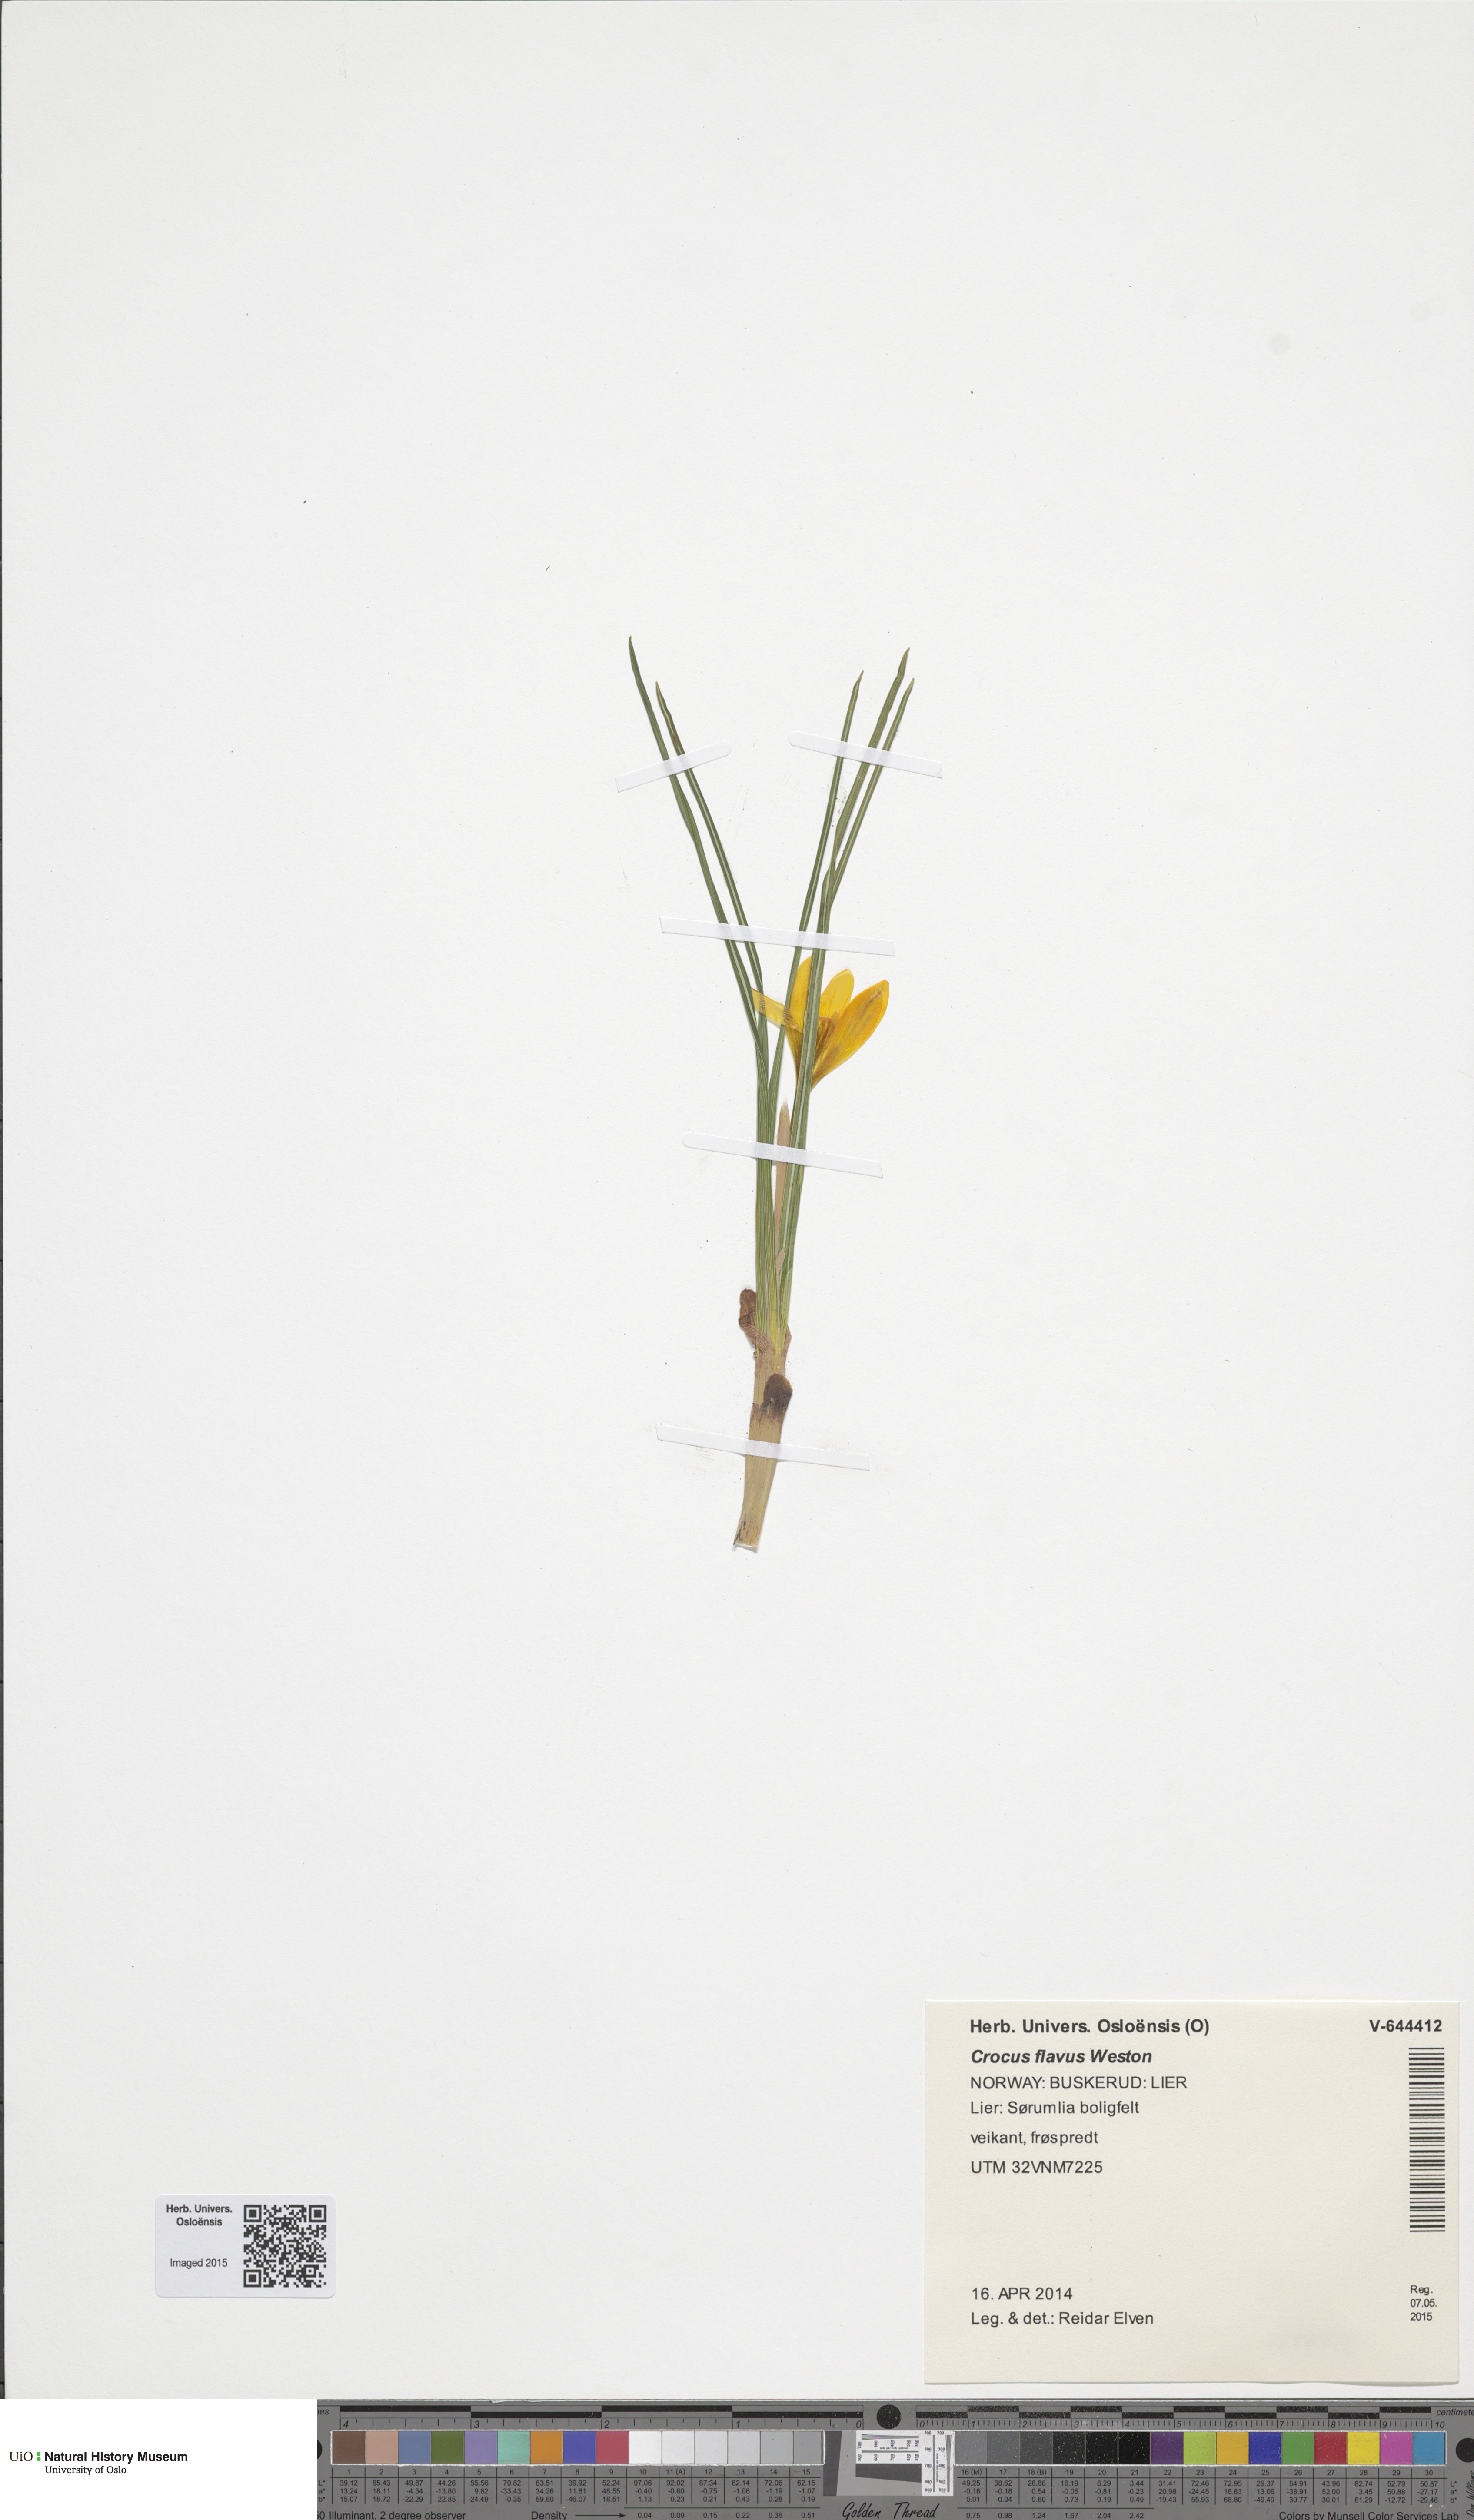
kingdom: Plantae
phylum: Tracheophyta
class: Liliopsida
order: Asparagales
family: Iridaceae
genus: Crocus
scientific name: Crocus luteus
